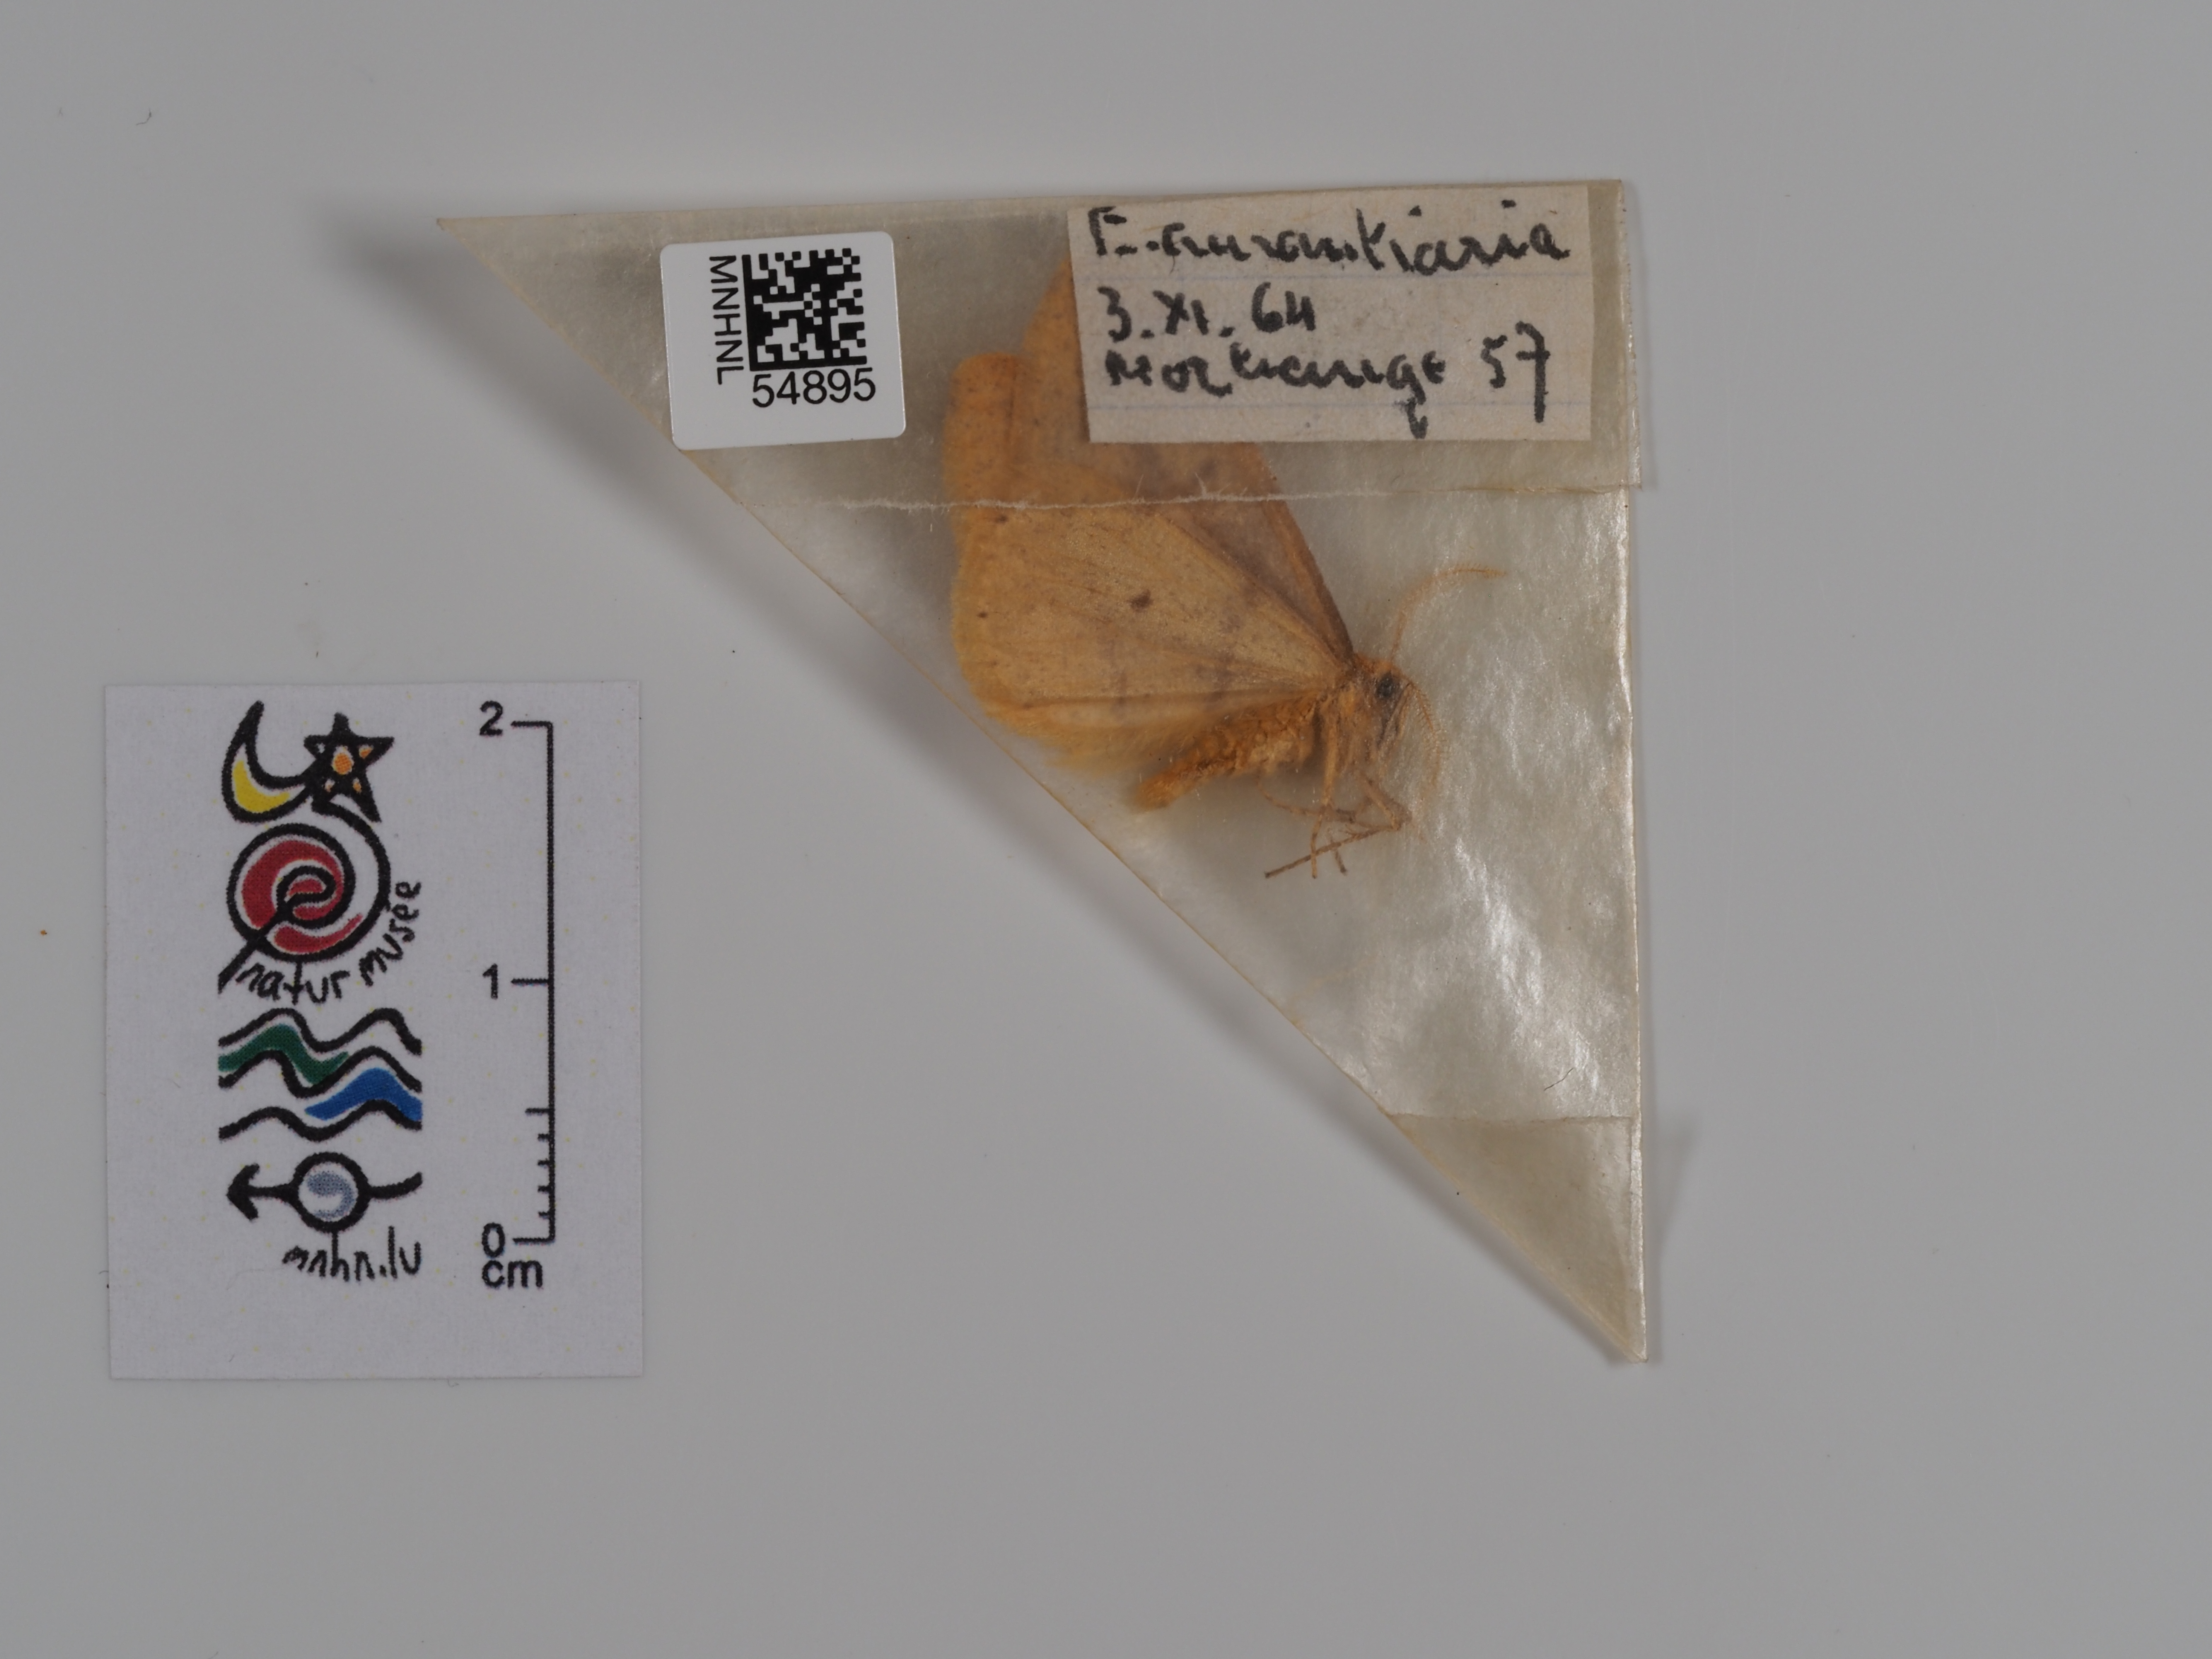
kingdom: Animalia
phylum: Arthropoda
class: Insecta
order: Lepidoptera
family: Geometridae
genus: Erannis
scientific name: Erannis
